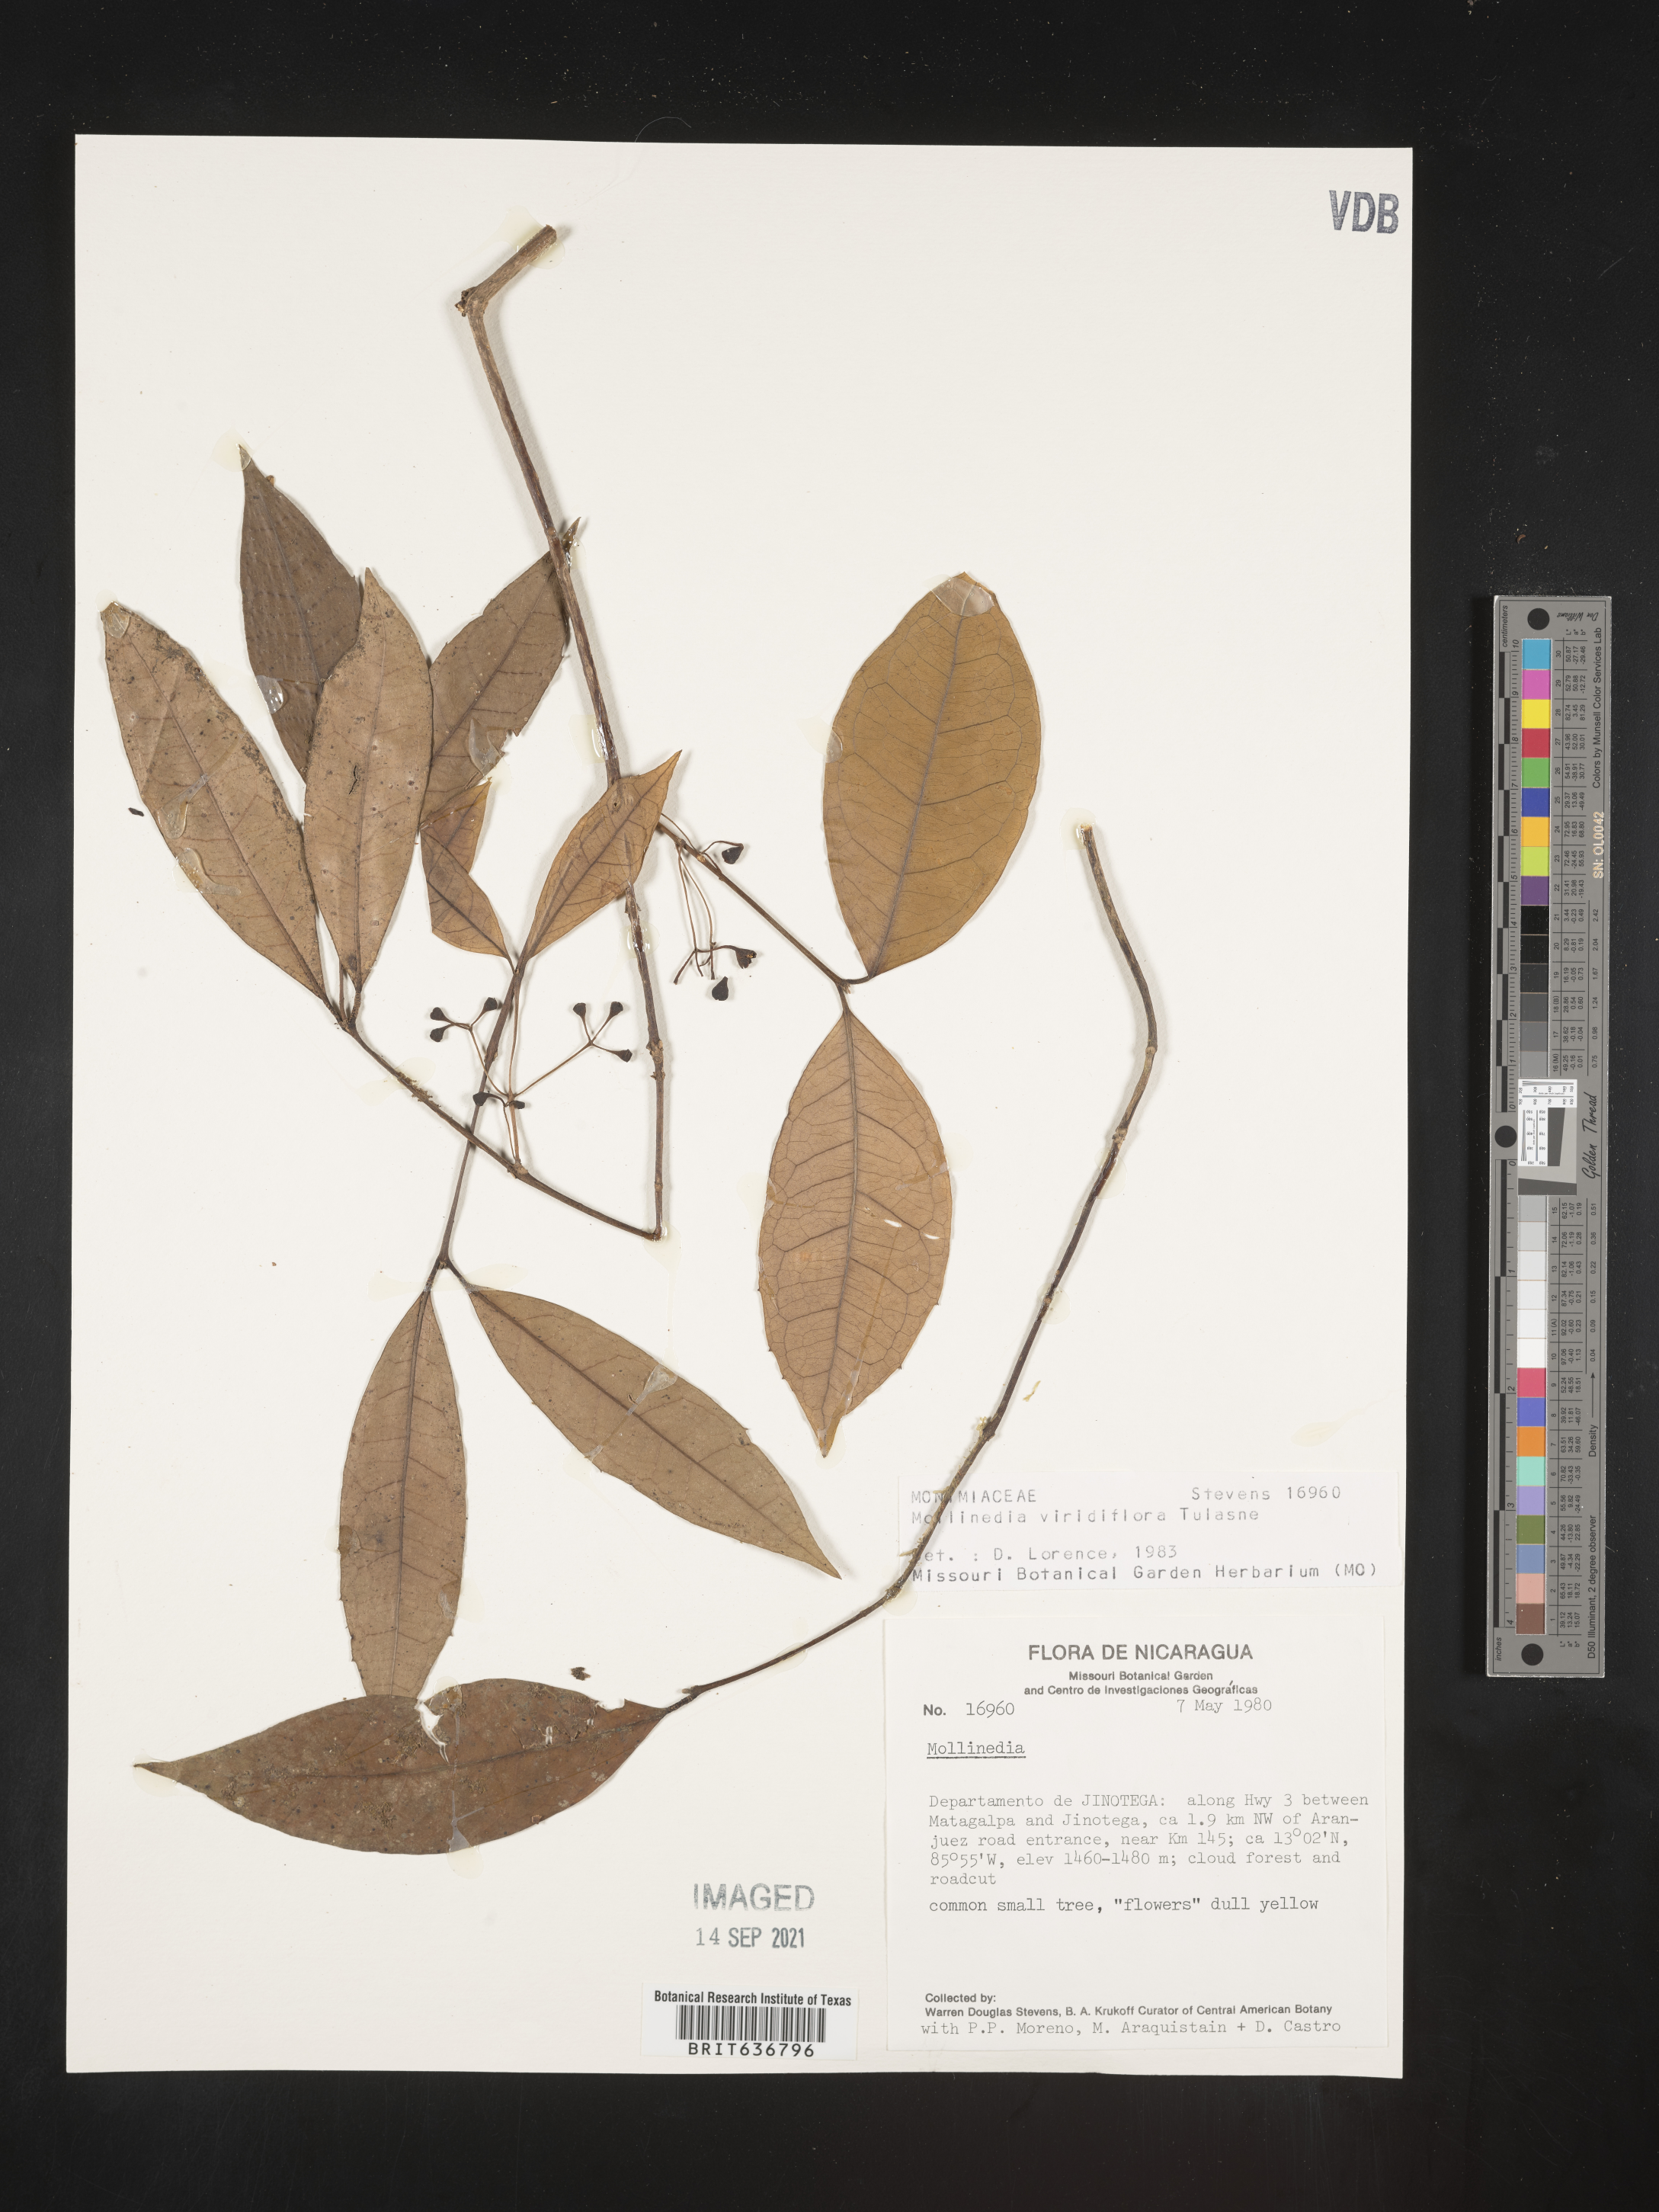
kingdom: Plantae
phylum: Tracheophyta
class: Magnoliopsida
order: Laurales
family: Monimiaceae
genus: Mollinedia
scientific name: Mollinedia
